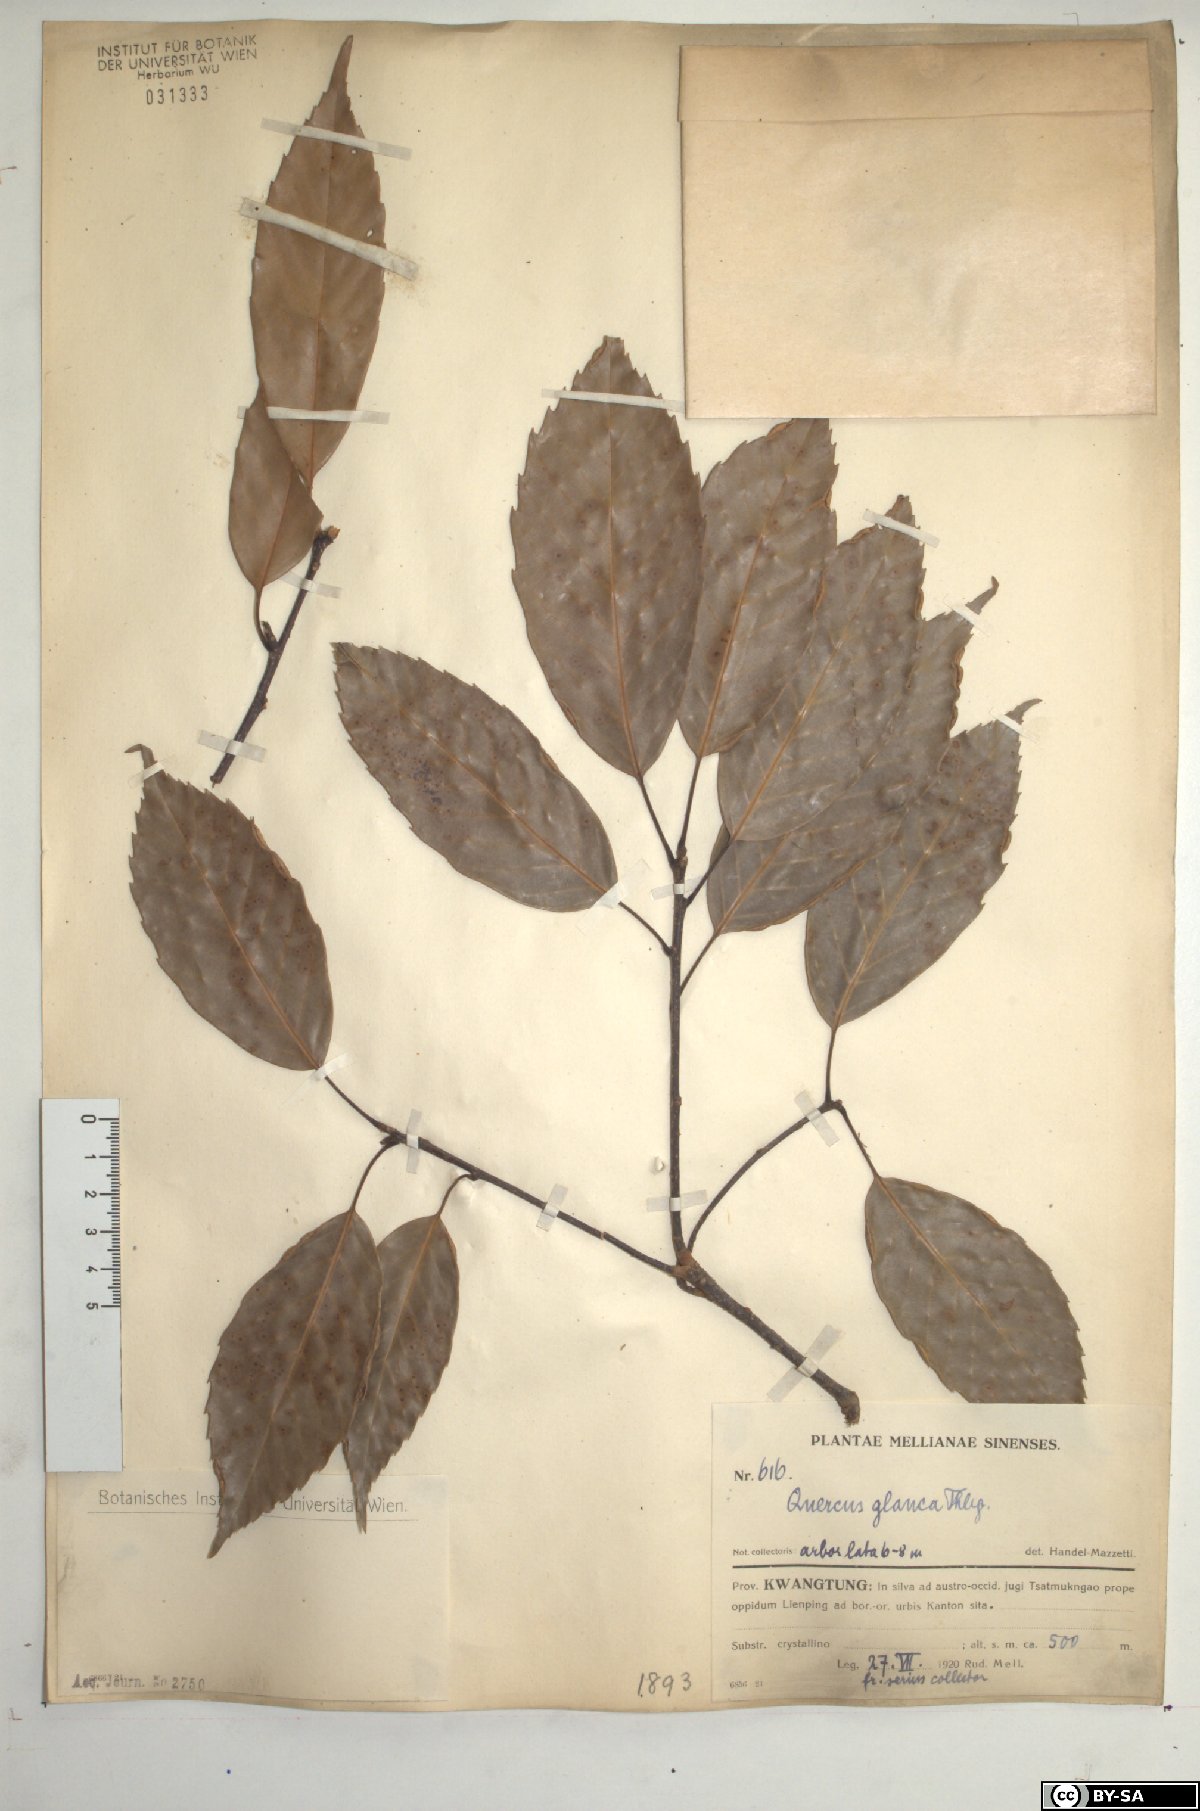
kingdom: Plantae
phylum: Tracheophyta
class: Magnoliopsida
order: Fagales
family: Fagaceae
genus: Quercus
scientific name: Quercus glauca
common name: Ring-cup oak
